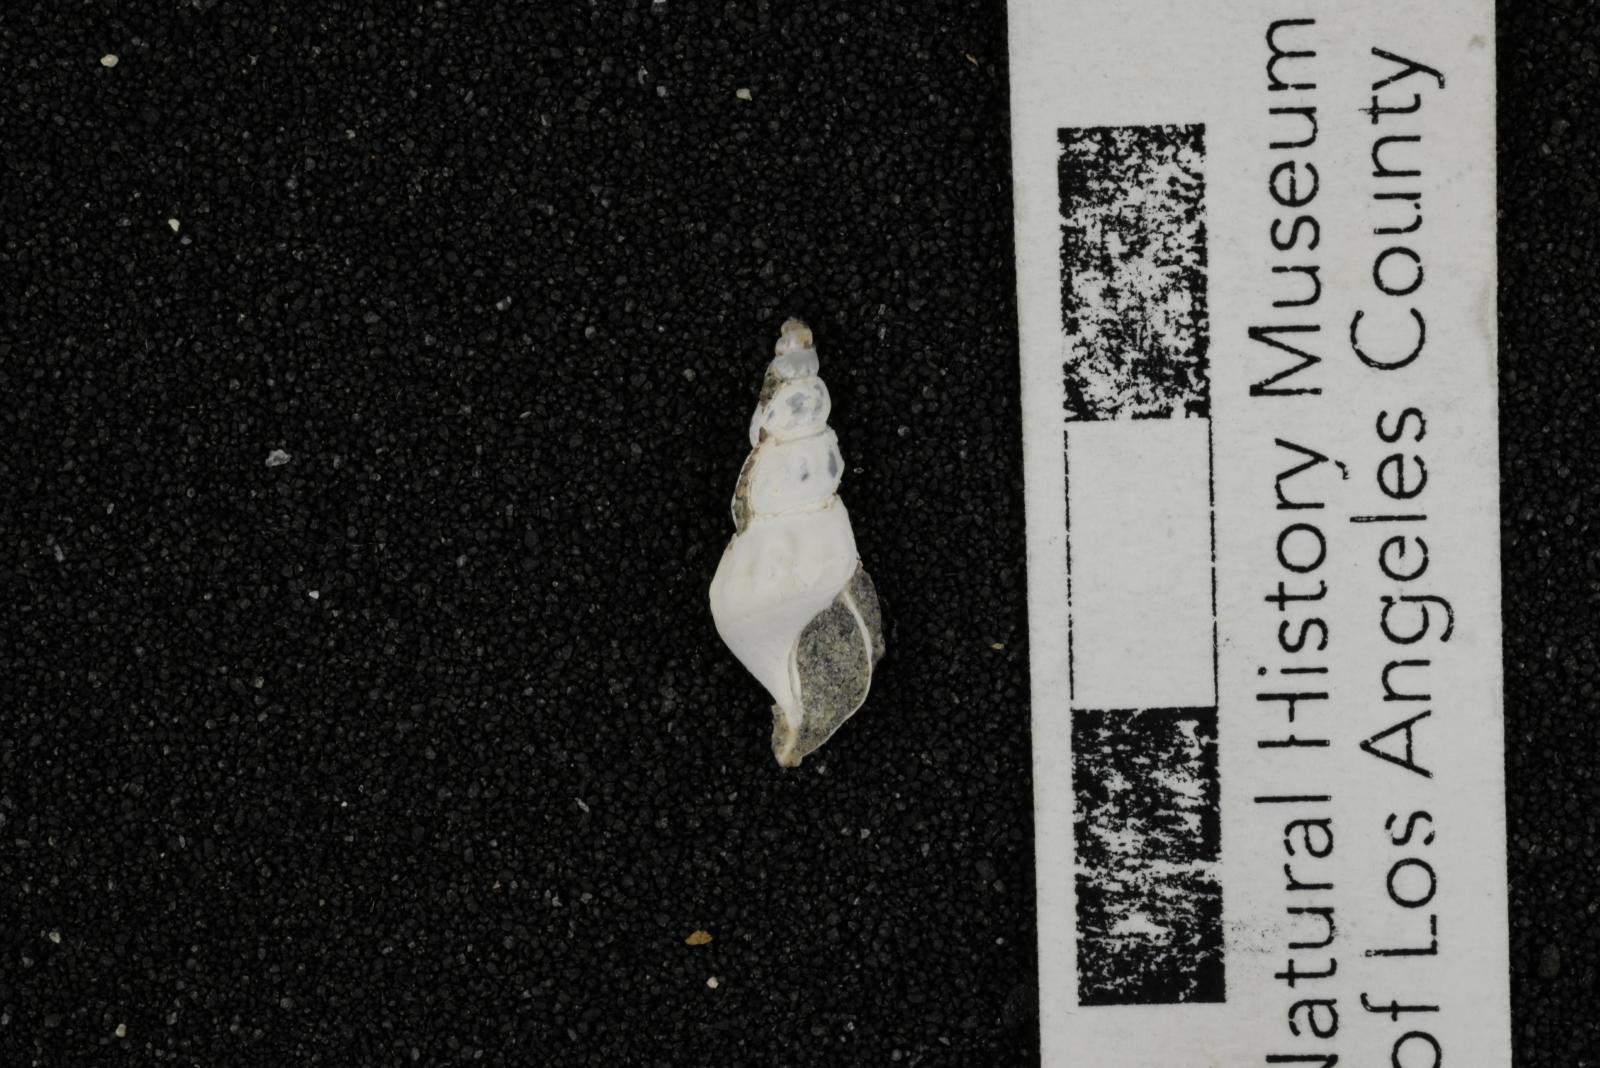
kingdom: Animalia
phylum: Mollusca
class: Gastropoda
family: Potamididae
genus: Potamides
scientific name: Potamides tenuis
